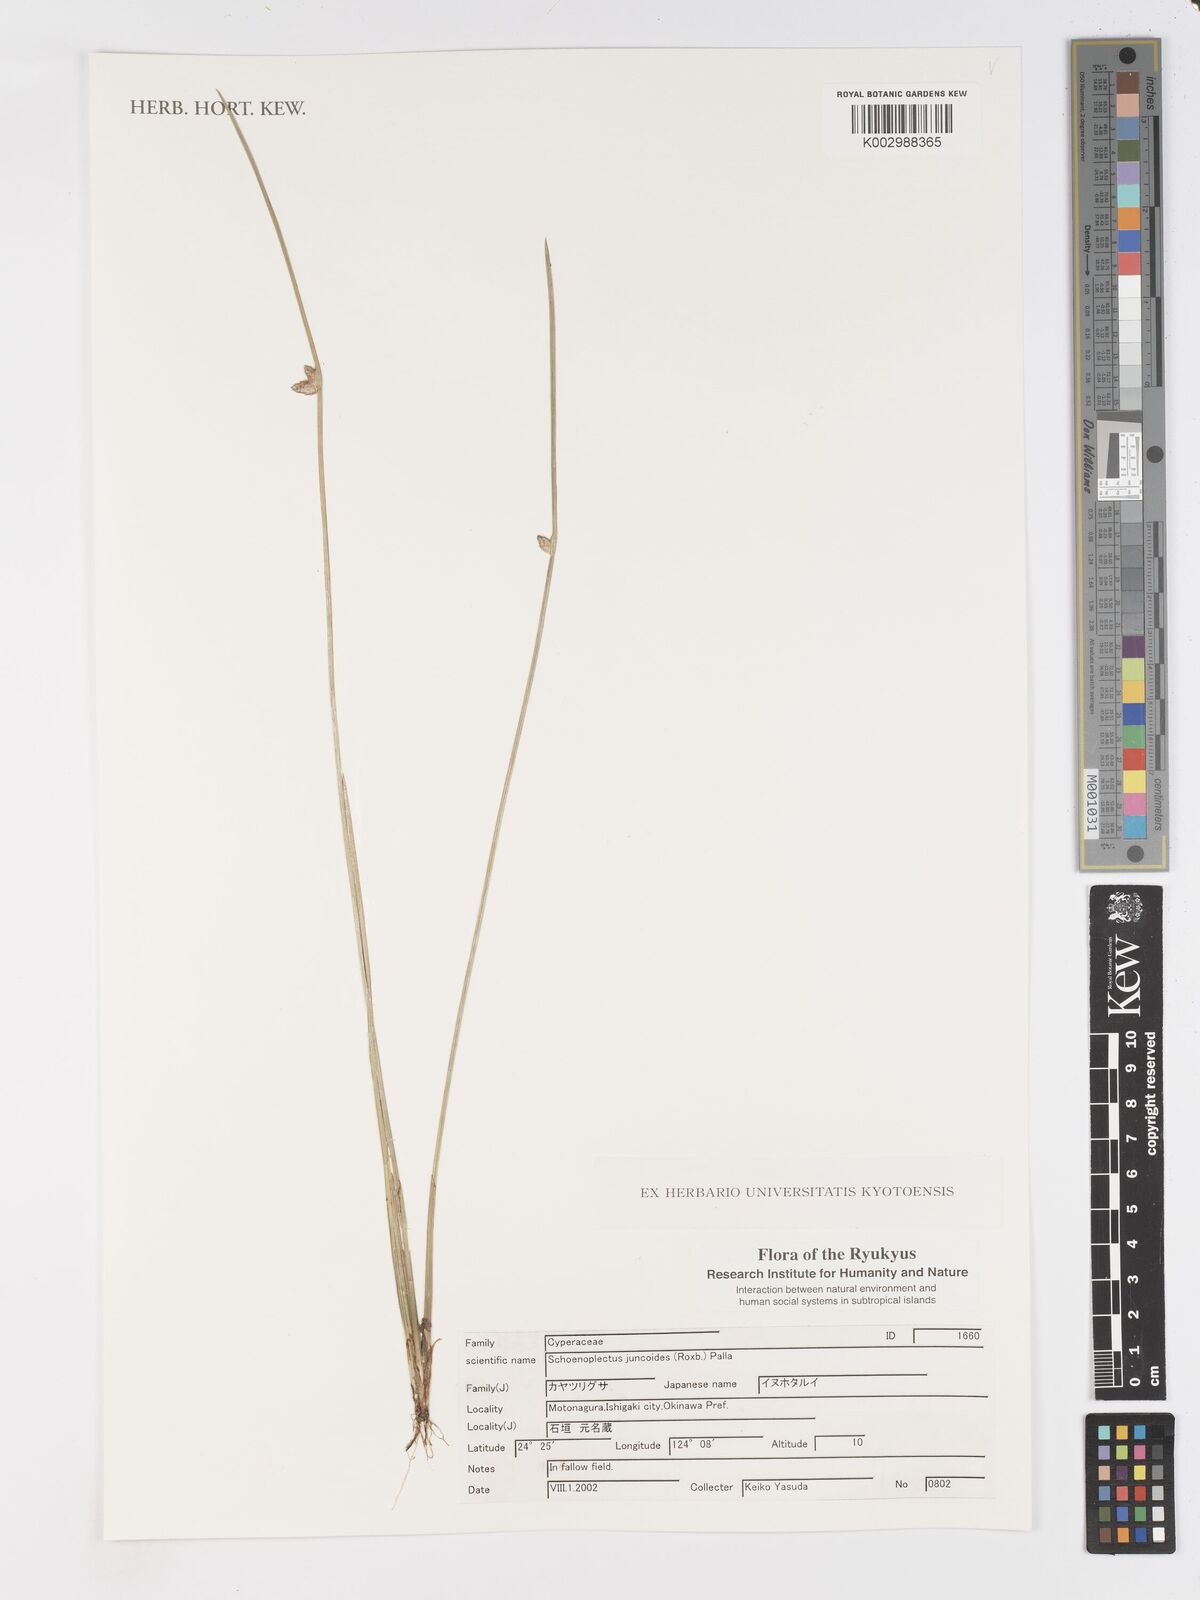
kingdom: Plantae
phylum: Tracheophyta
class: Liliopsida
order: Poales
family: Cyperaceae
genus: Schoenoplectiella
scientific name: Schoenoplectiella juncoides
